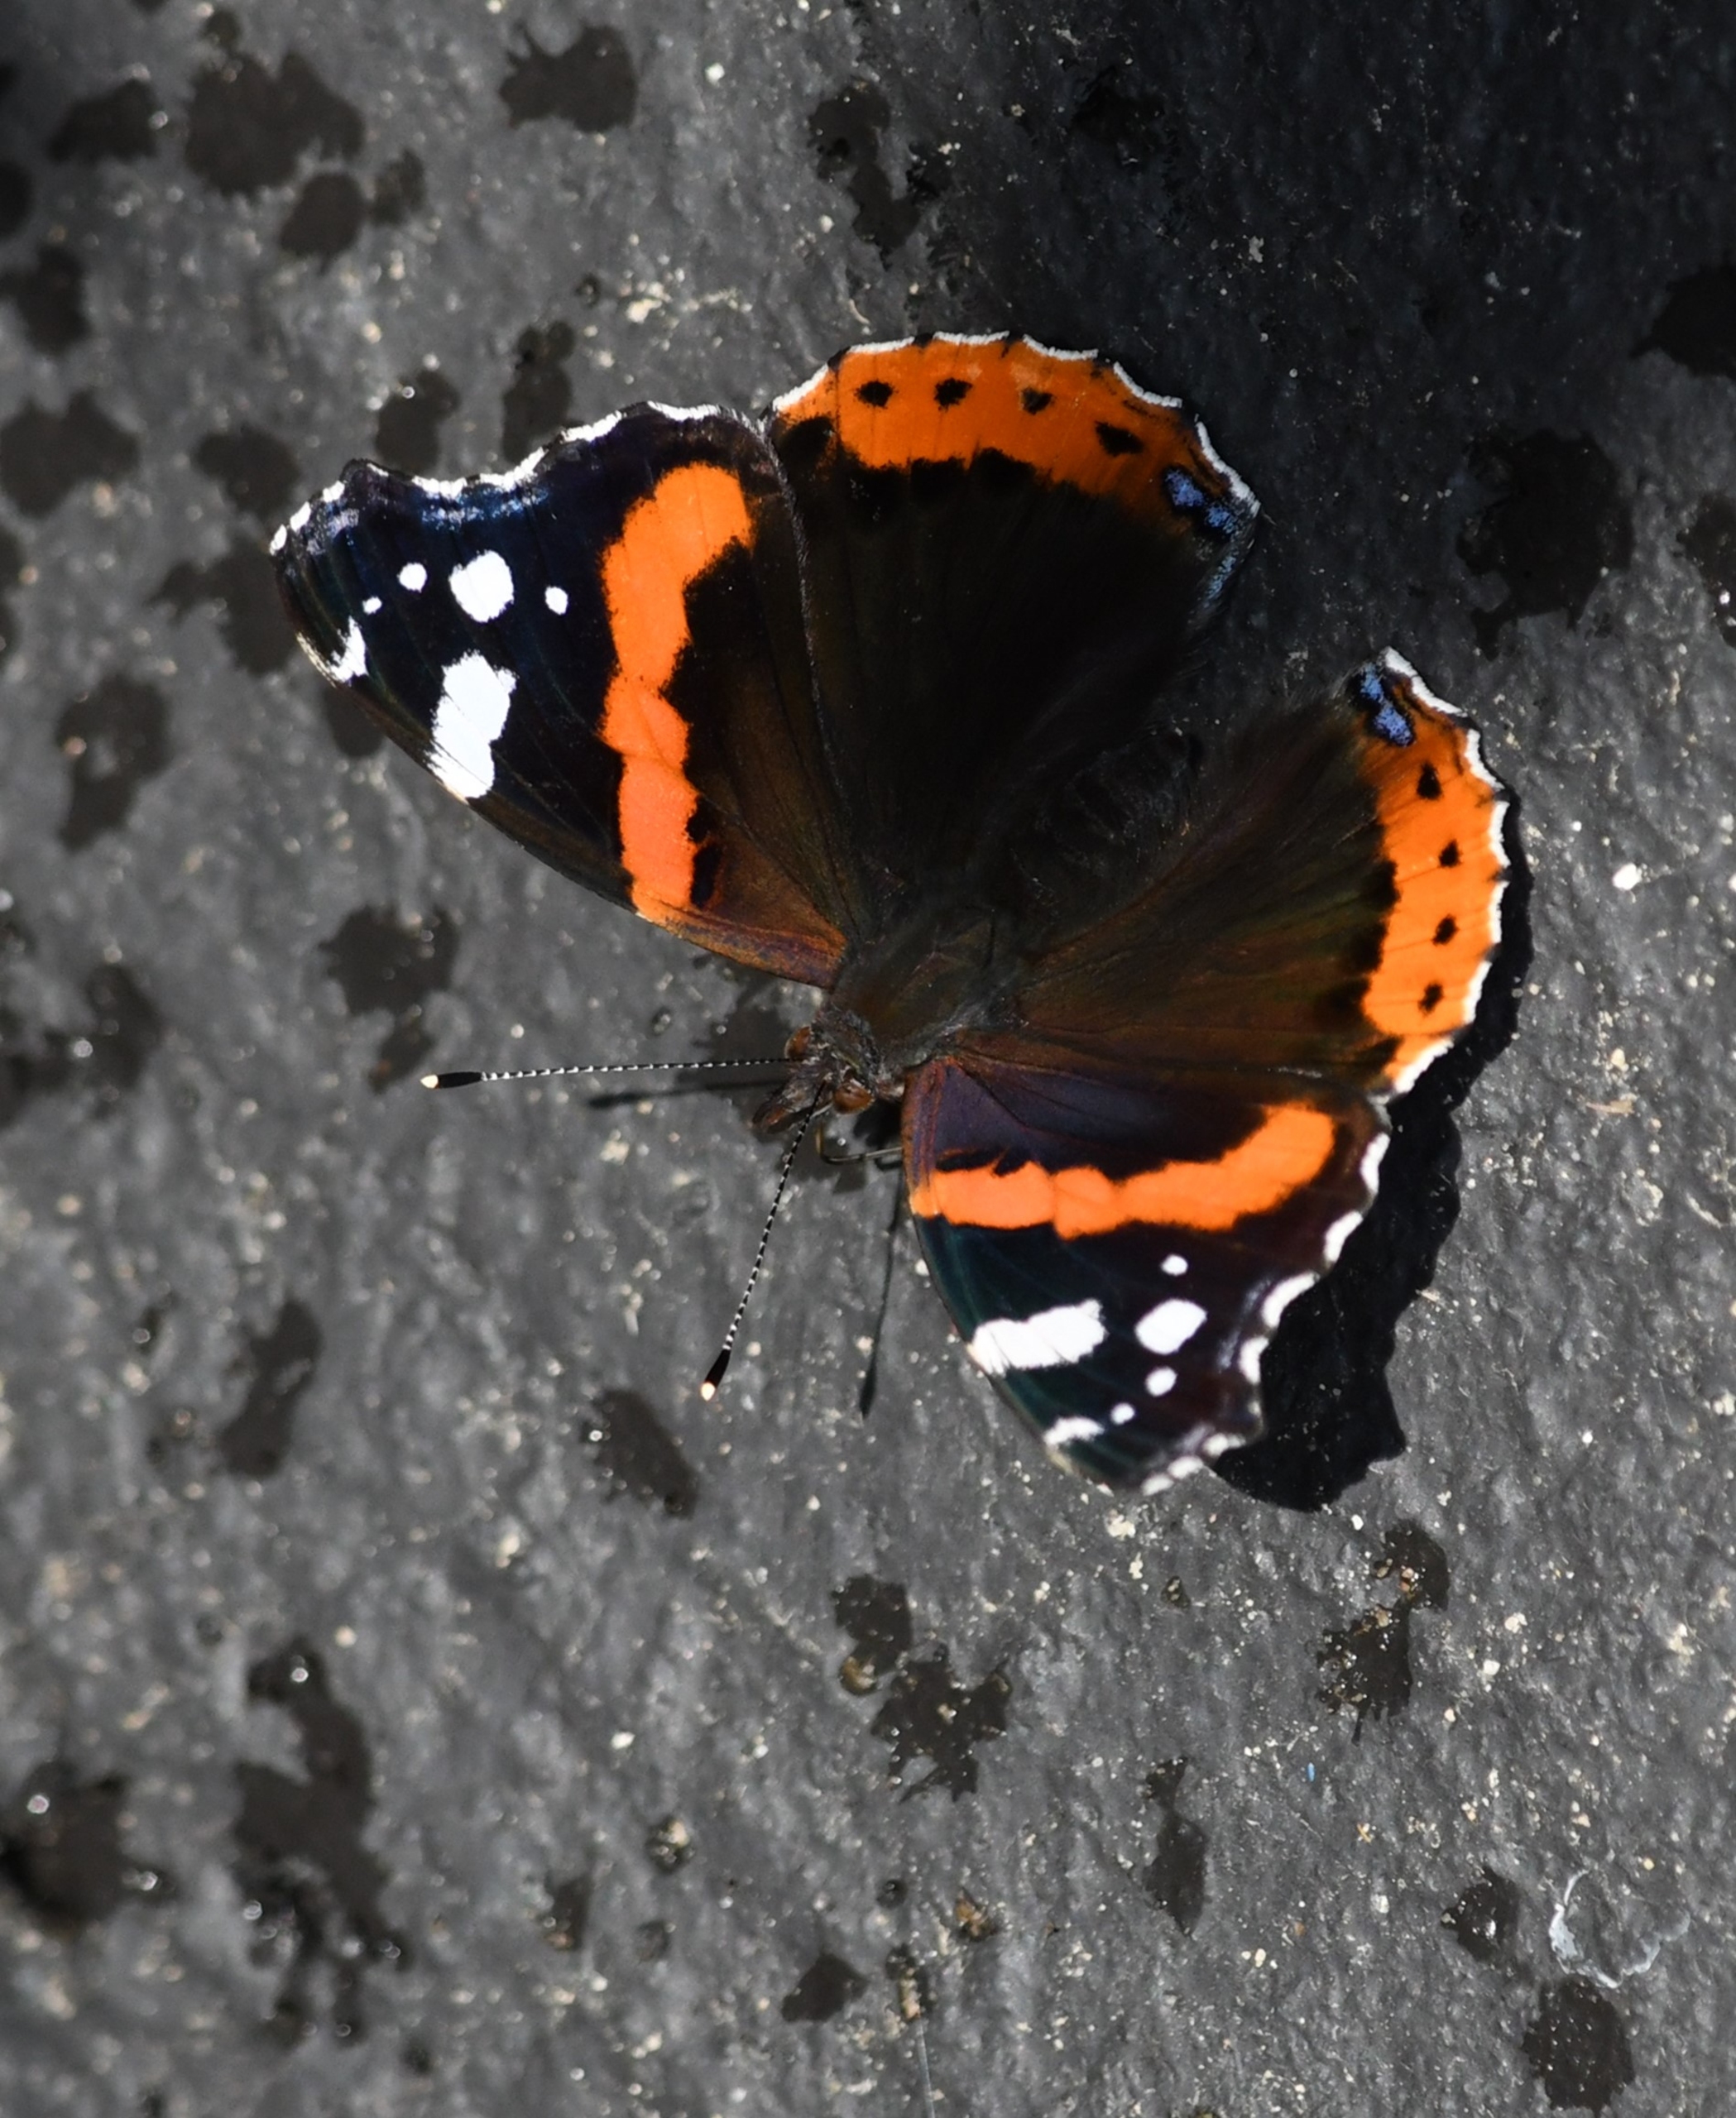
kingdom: Animalia
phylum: Arthropoda
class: Insecta
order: Lepidoptera
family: Nymphalidae
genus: Vanessa
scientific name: Vanessa atalanta
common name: Admiral
